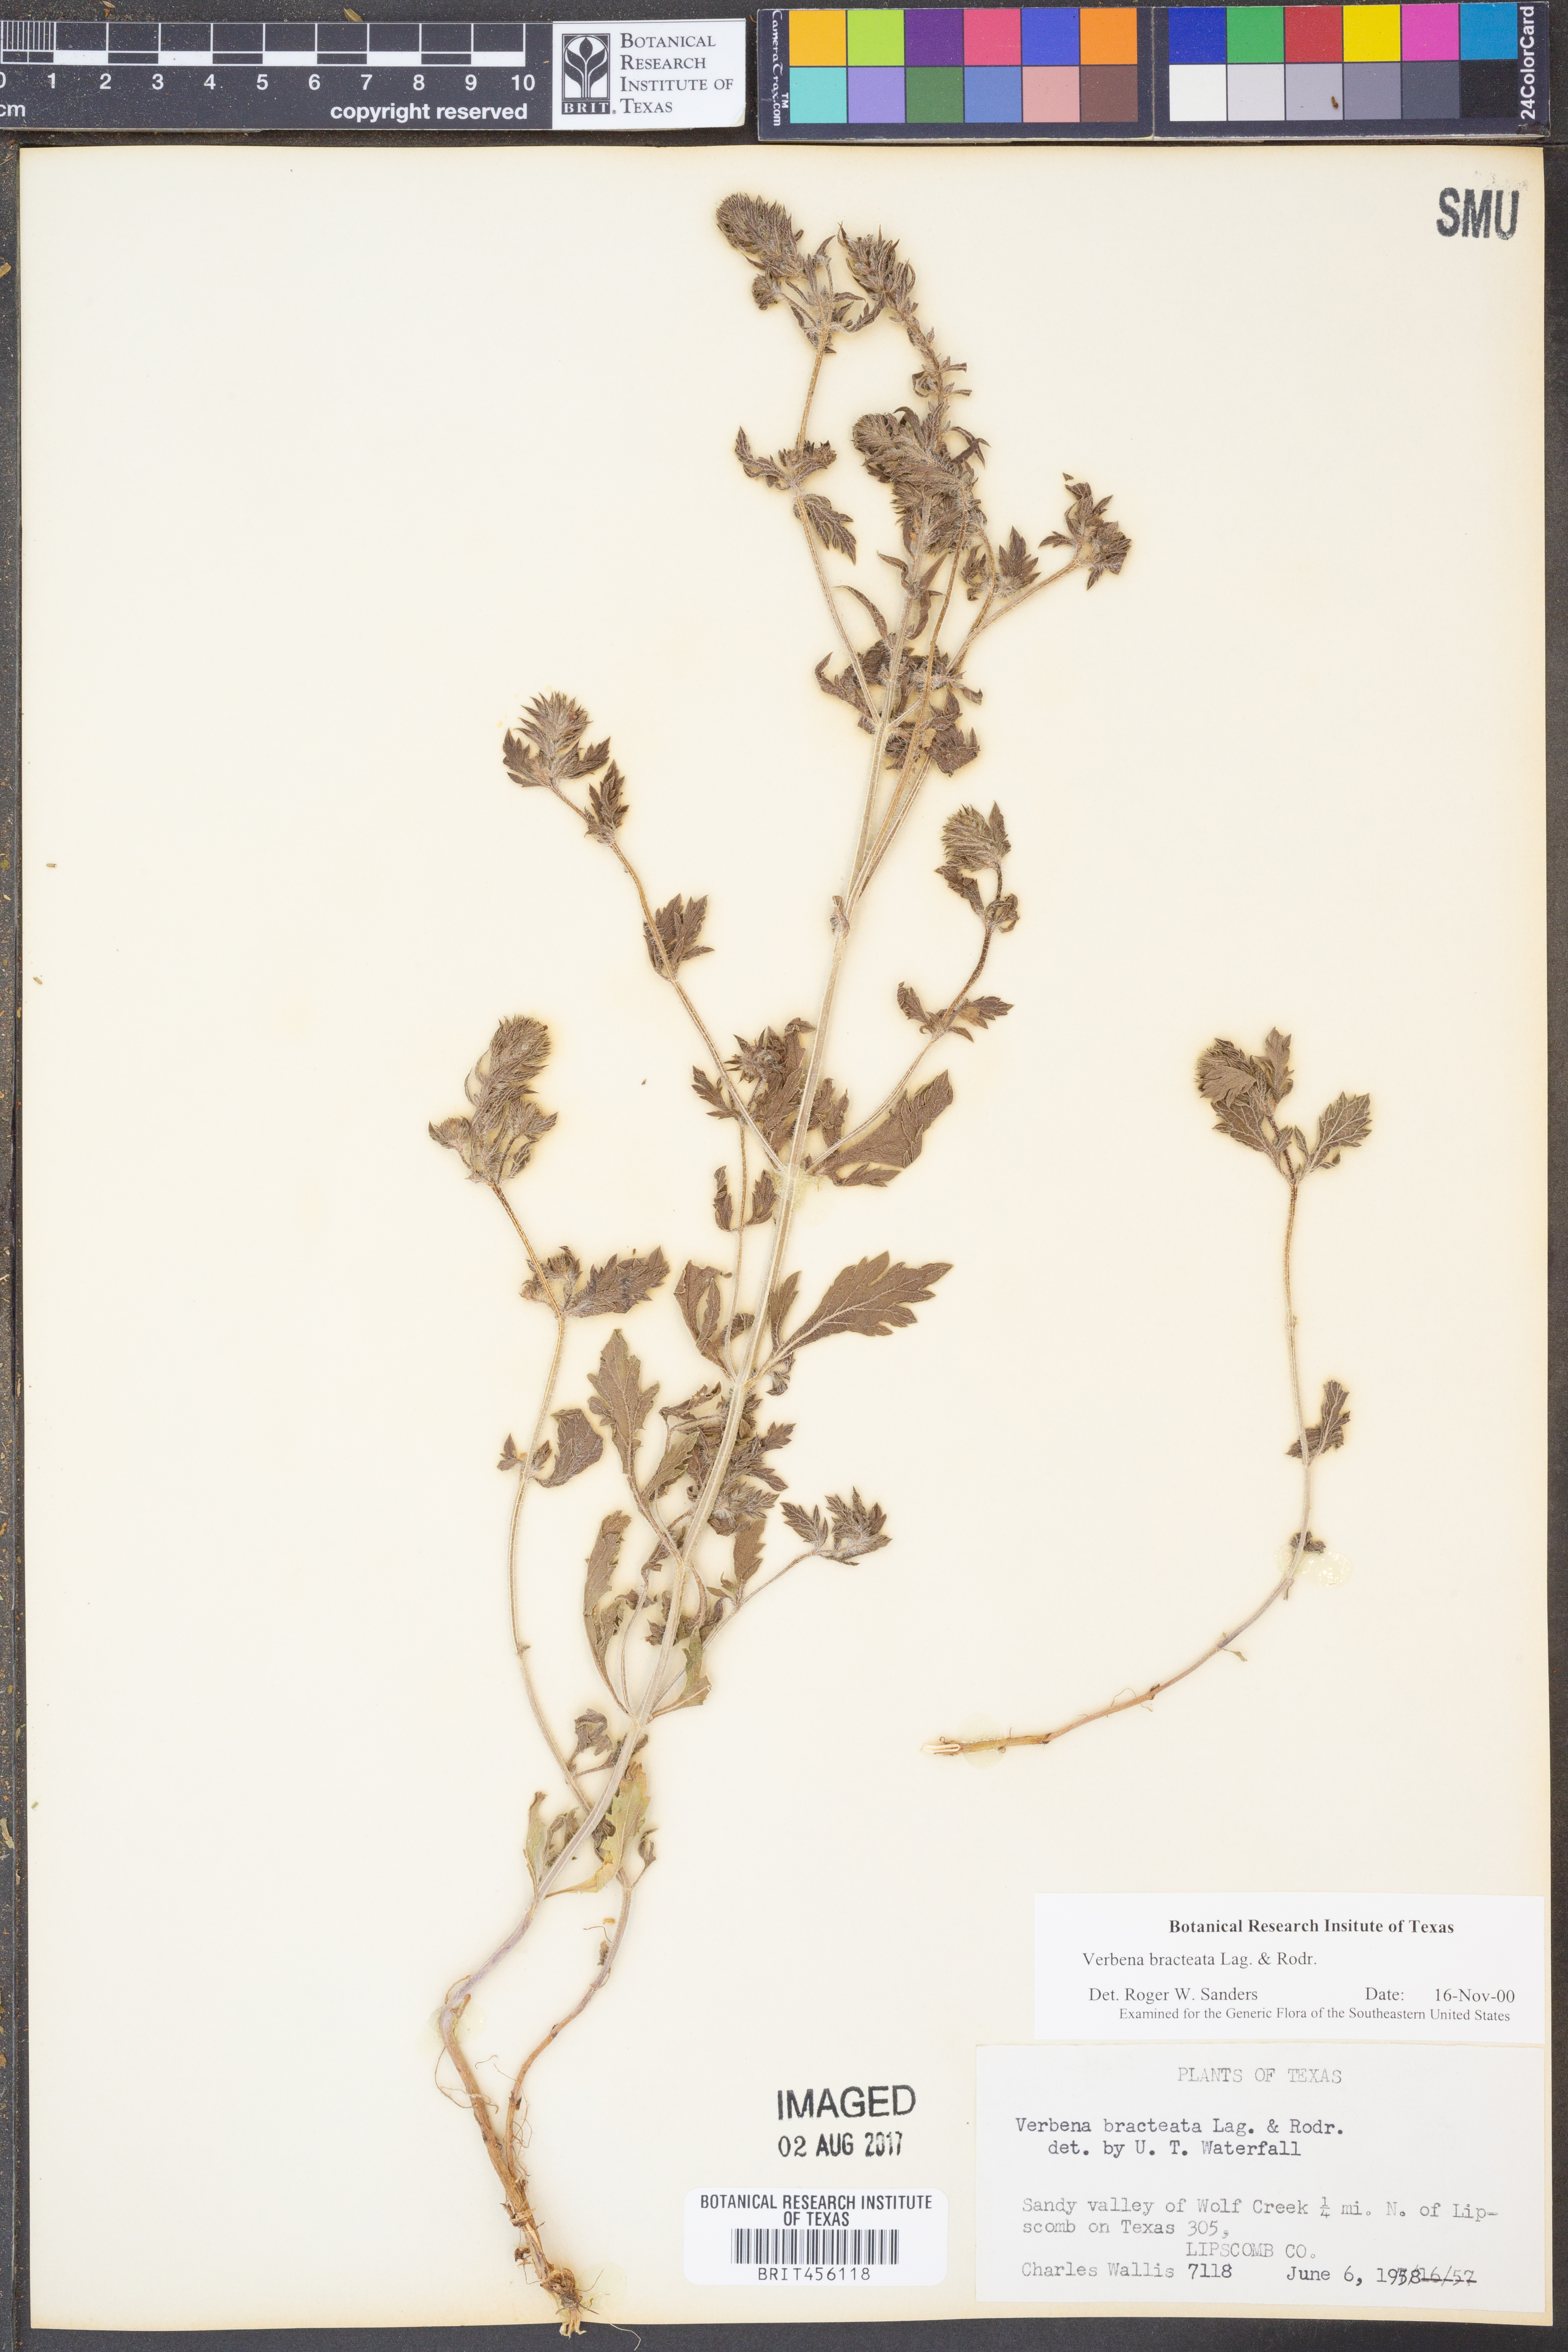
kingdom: Plantae
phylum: Tracheophyta
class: Magnoliopsida
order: Lamiales
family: Verbenaceae
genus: Verbena
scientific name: Verbena bracteata
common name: Bracted vervain
